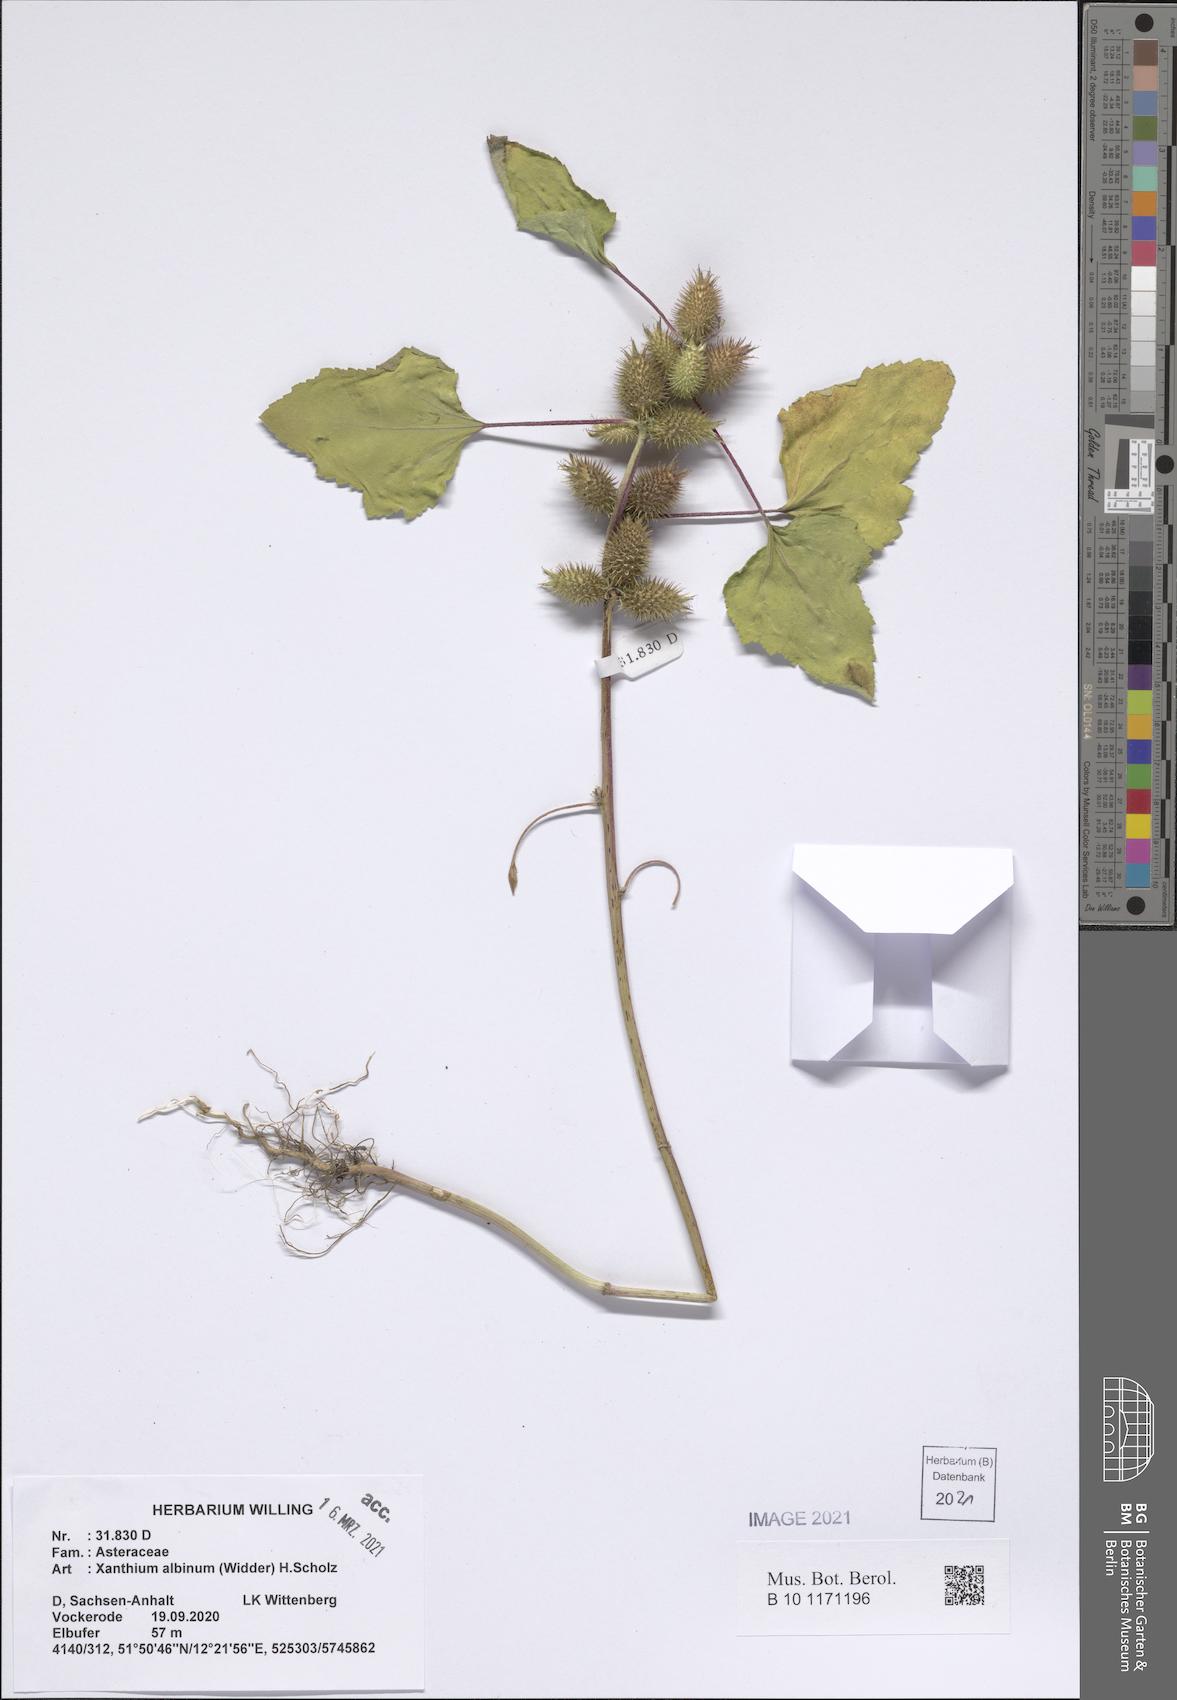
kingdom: Plantae
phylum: Tracheophyta
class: Magnoliopsida
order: Asterales
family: Asteraceae
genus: Xanthium
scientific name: Xanthium orientale
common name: Californian burr
